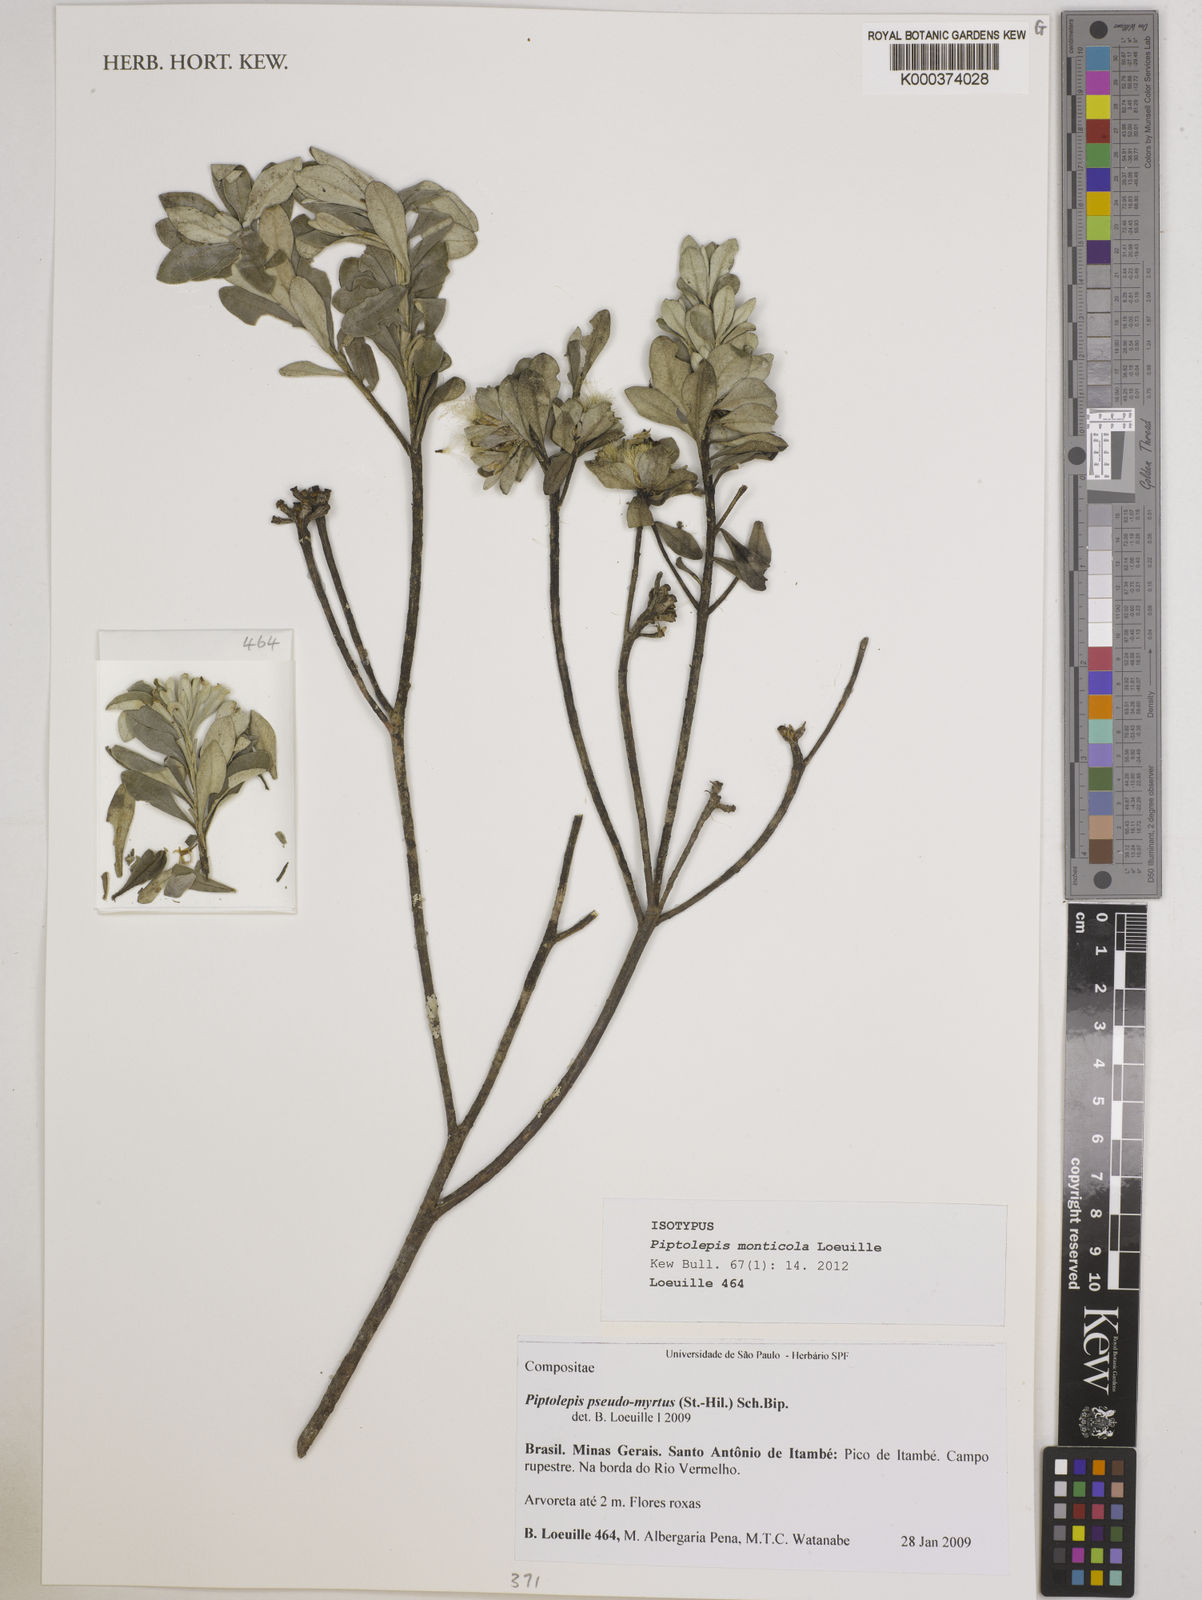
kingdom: Plantae
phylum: Tracheophyta
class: Magnoliopsida
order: Asterales
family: Asteraceae
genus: Piptolepis
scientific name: Piptolepis monticola
